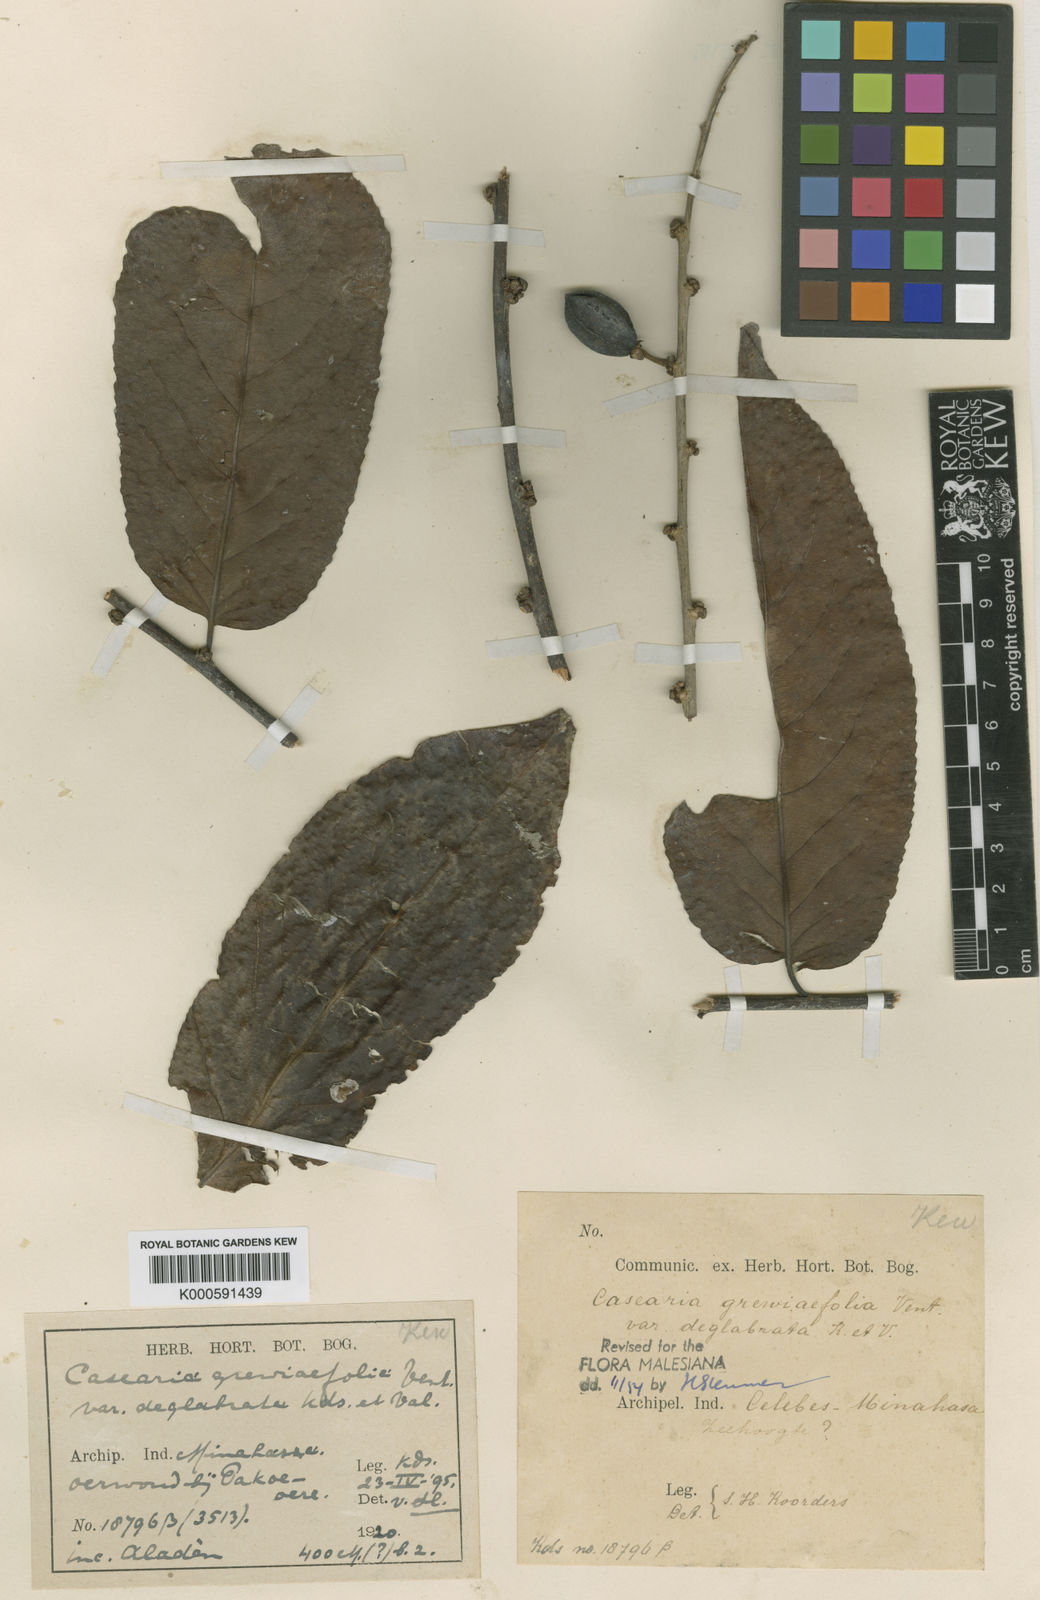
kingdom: Plantae
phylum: Tracheophyta
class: Magnoliopsida
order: Malpighiales
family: Salicaceae
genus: Casearia
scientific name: Casearia grewiifolia
